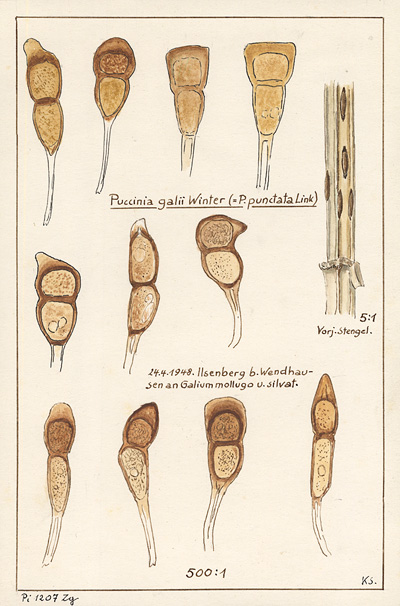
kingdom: Fungi
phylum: Basidiomycota
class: Pucciniomycetes
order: Pucciniales
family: Pucciniaceae
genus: Puccinia
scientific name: Puccinia difformis
